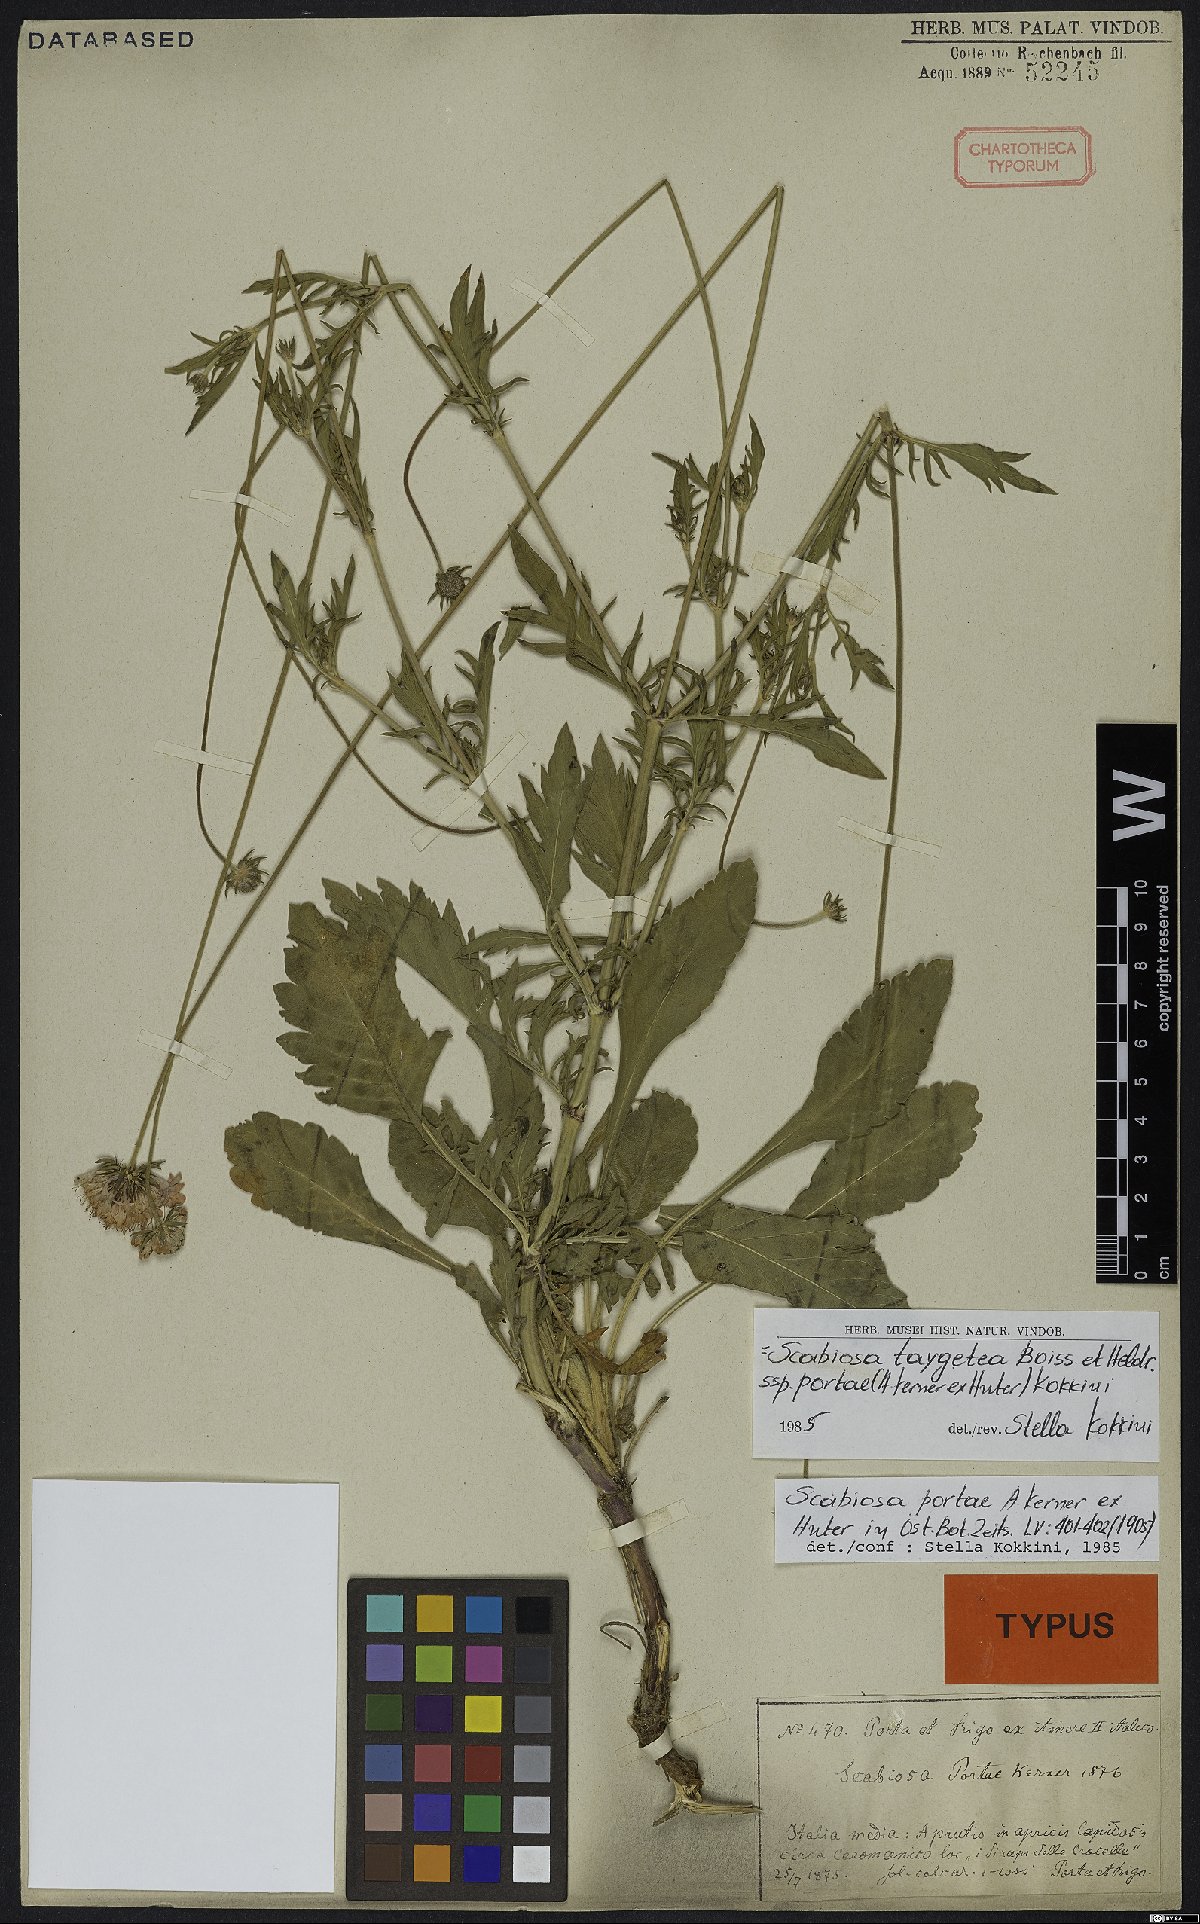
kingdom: Plantae
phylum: Tracheophyta
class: Magnoliopsida
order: Dipsacales
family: Caprifoliaceae
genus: Scabiosa
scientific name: Scabiosa taygetea
